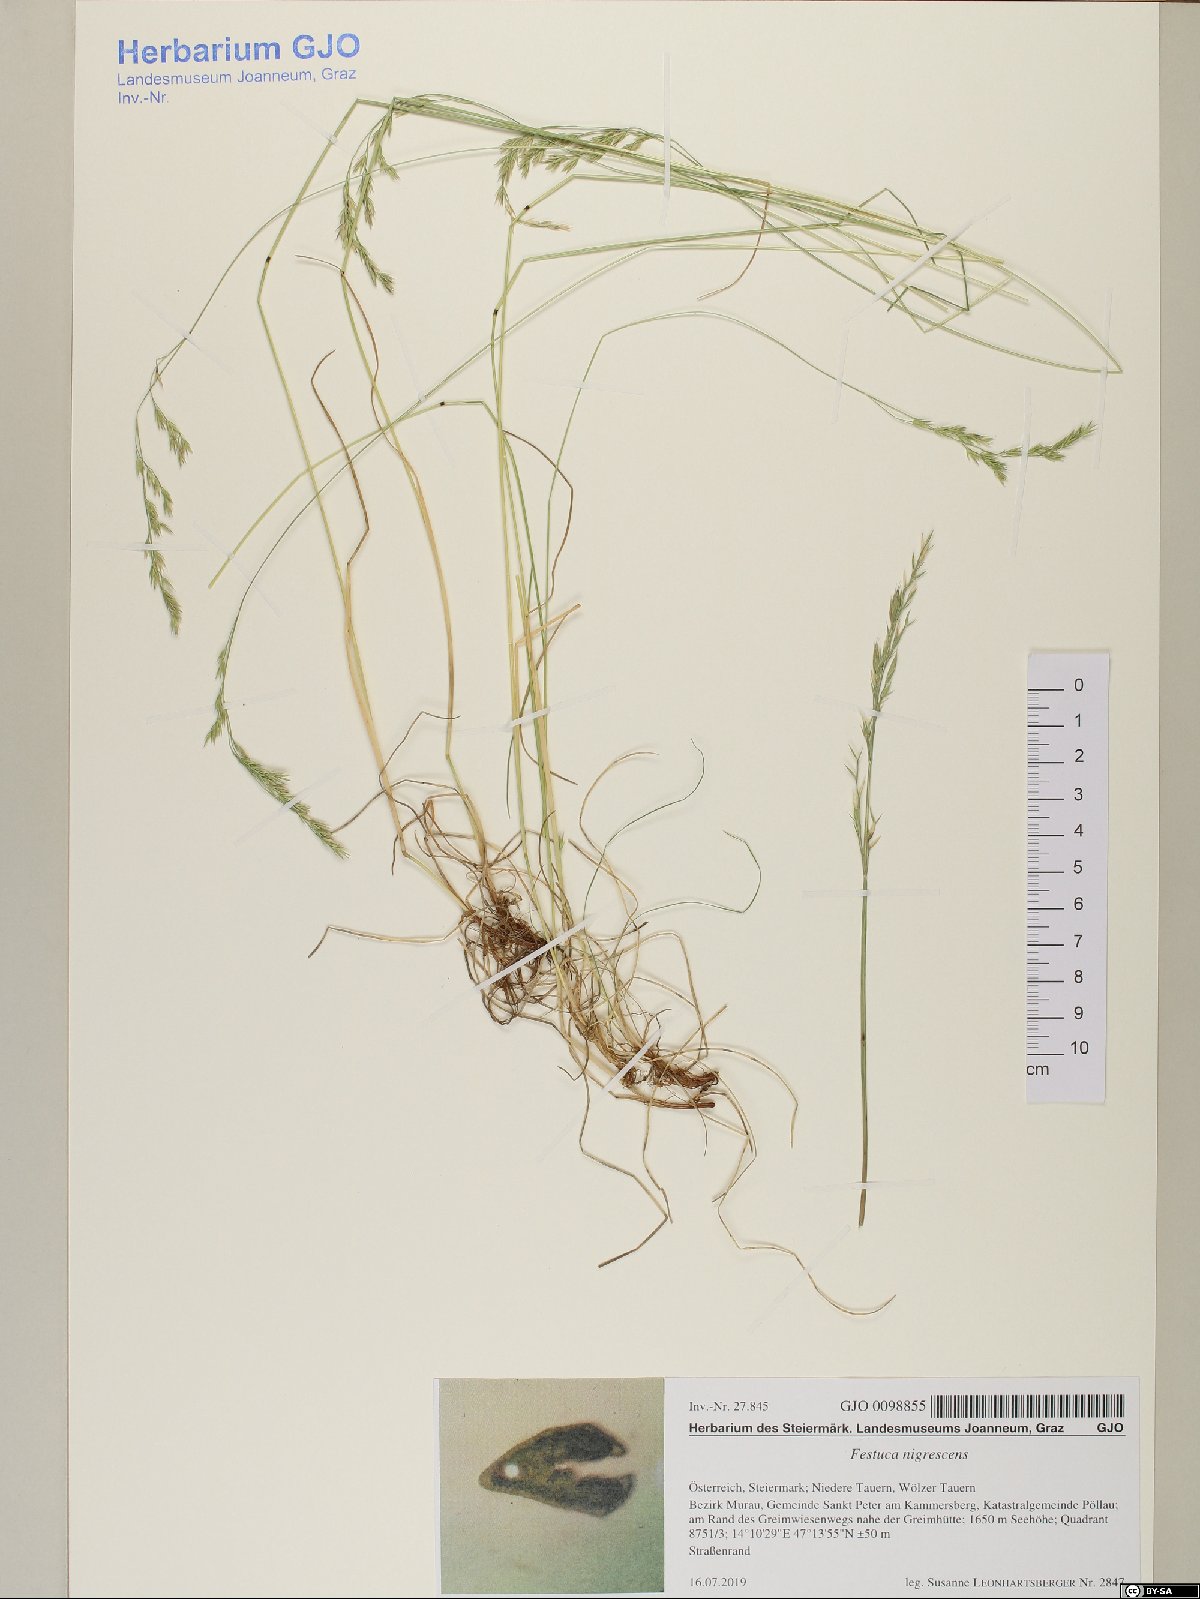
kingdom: Plantae
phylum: Tracheophyta
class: Liliopsida
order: Poales
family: Poaceae
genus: Festuca
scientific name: Festuca nigrescens
